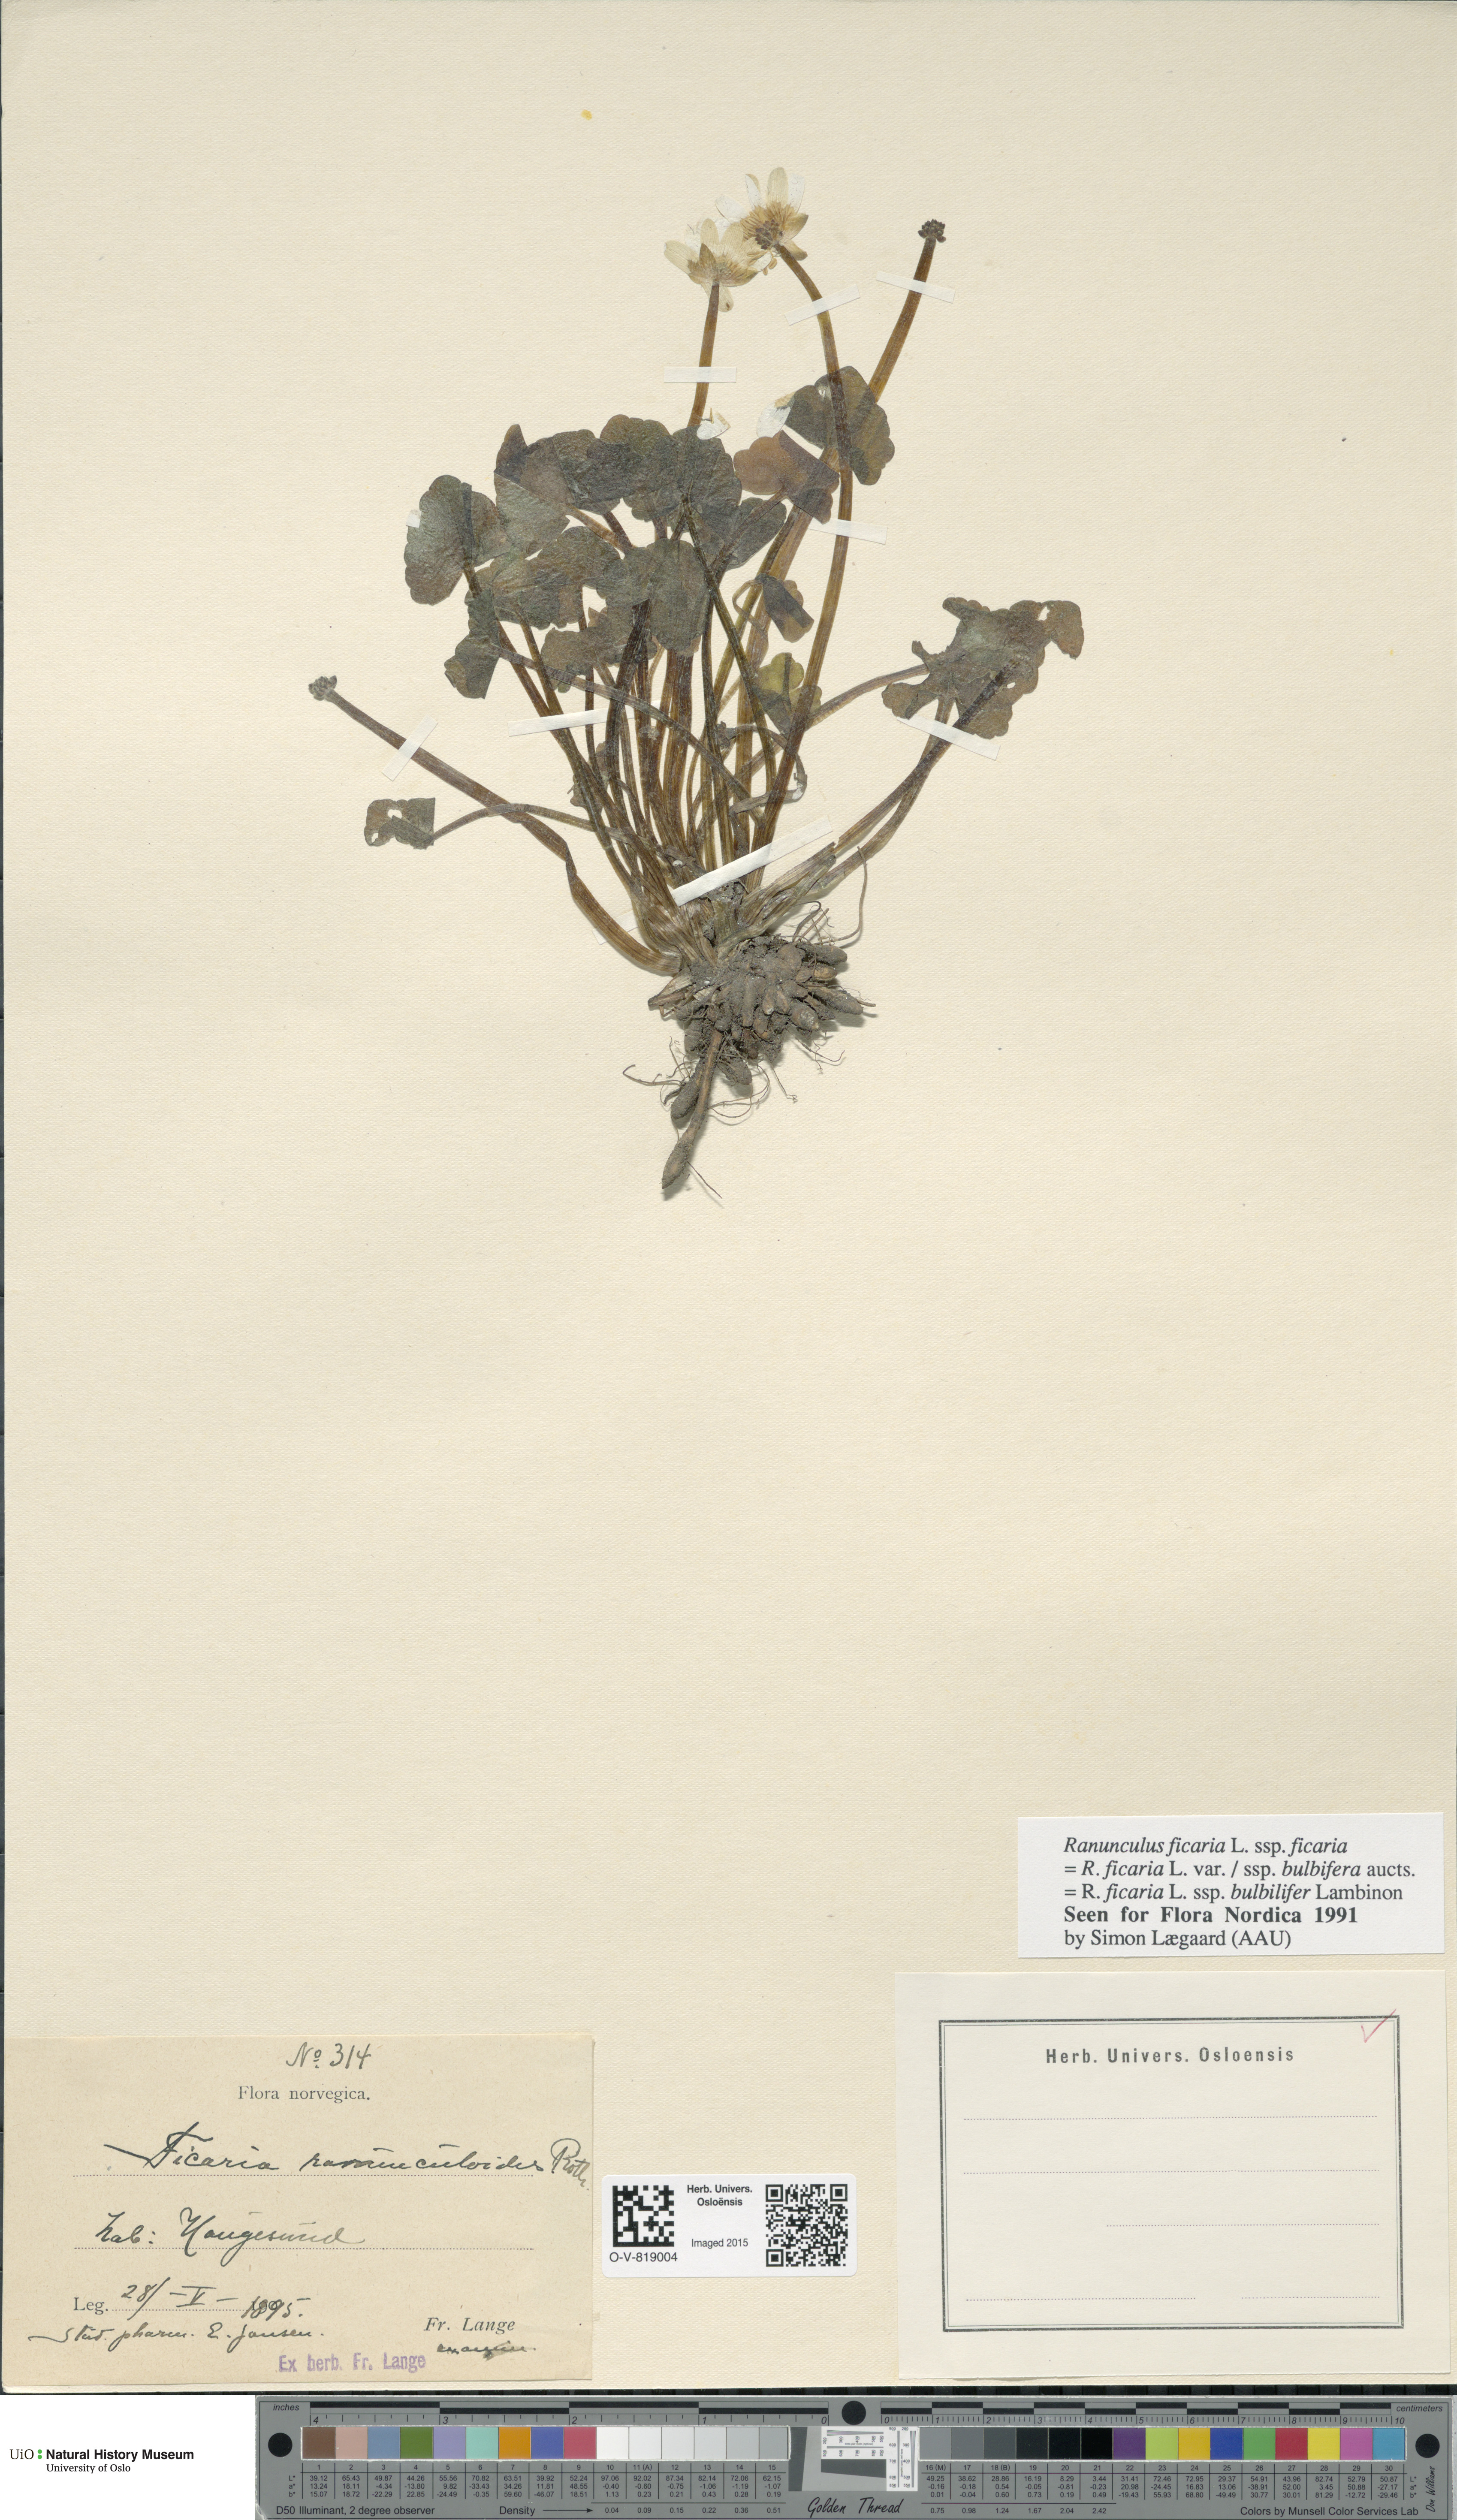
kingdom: Plantae
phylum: Tracheophyta
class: Magnoliopsida
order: Ranunculales
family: Ranunculaceae
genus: Ficaria
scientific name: Ficaria verna
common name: Lesser celandine
